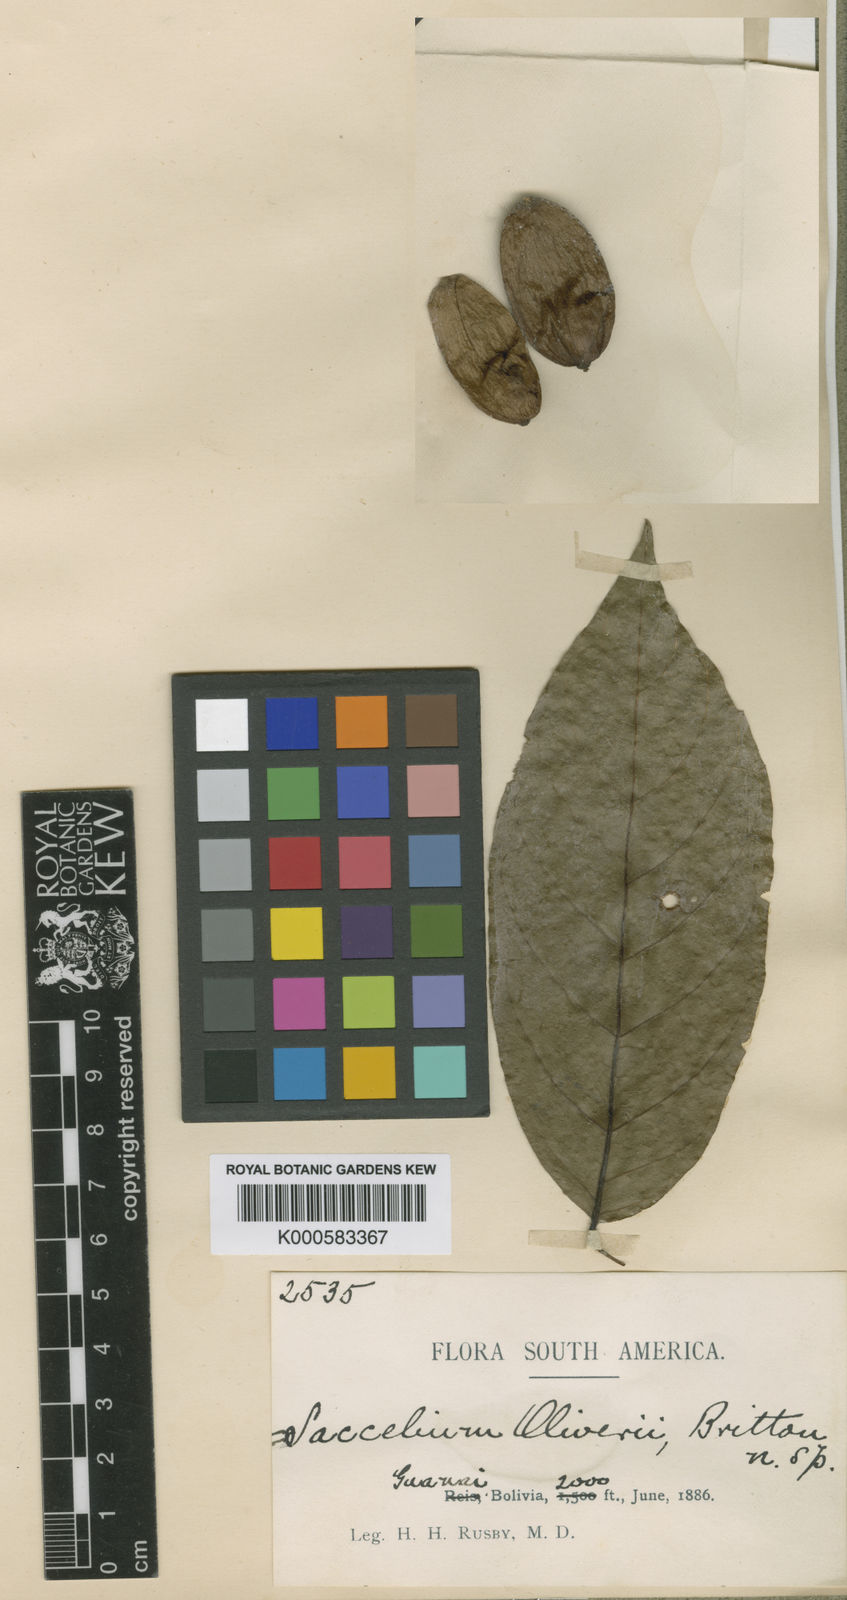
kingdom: Plantae
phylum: Tracheophyta
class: Magnoliopsida
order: Boraginales
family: Cordiaceae
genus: Cordia
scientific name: Cordia
